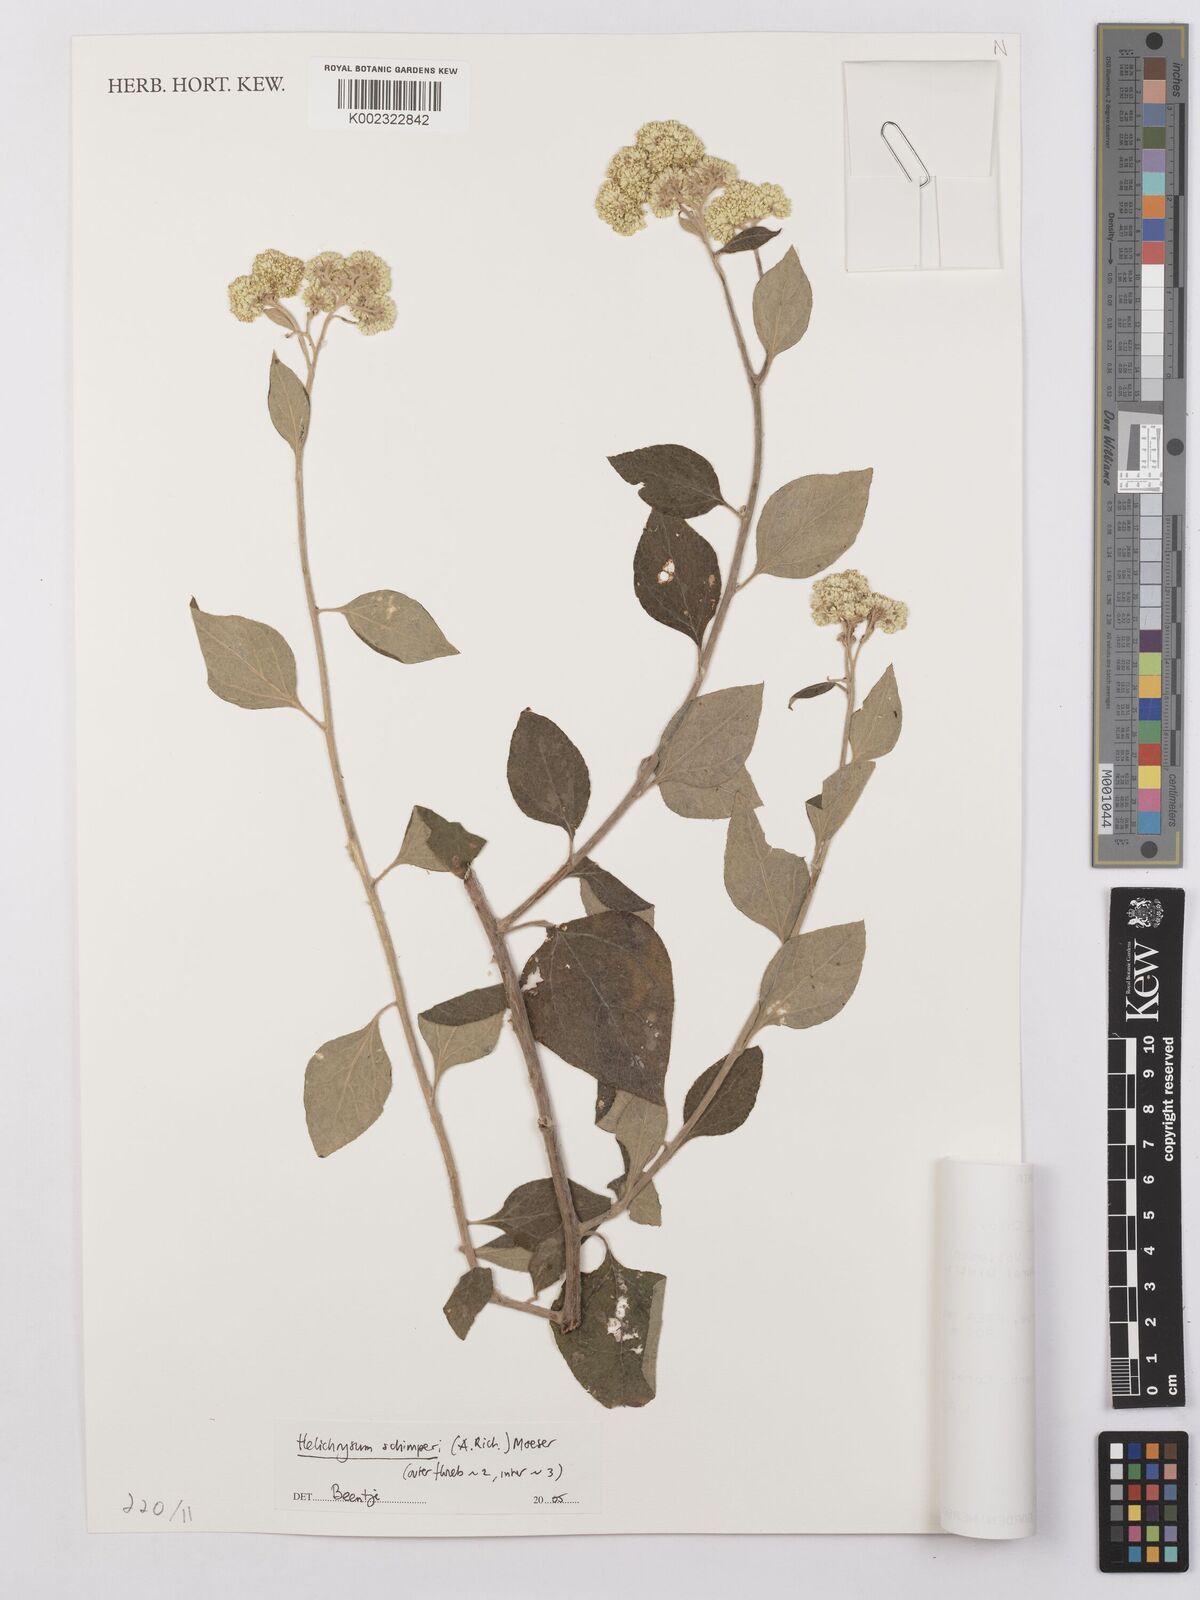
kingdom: Plantae
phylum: Tracheophyta
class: Magnoliopsida
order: Asterales
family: Asteraceae
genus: Helichrysum
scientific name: Helichrysum schimperi
